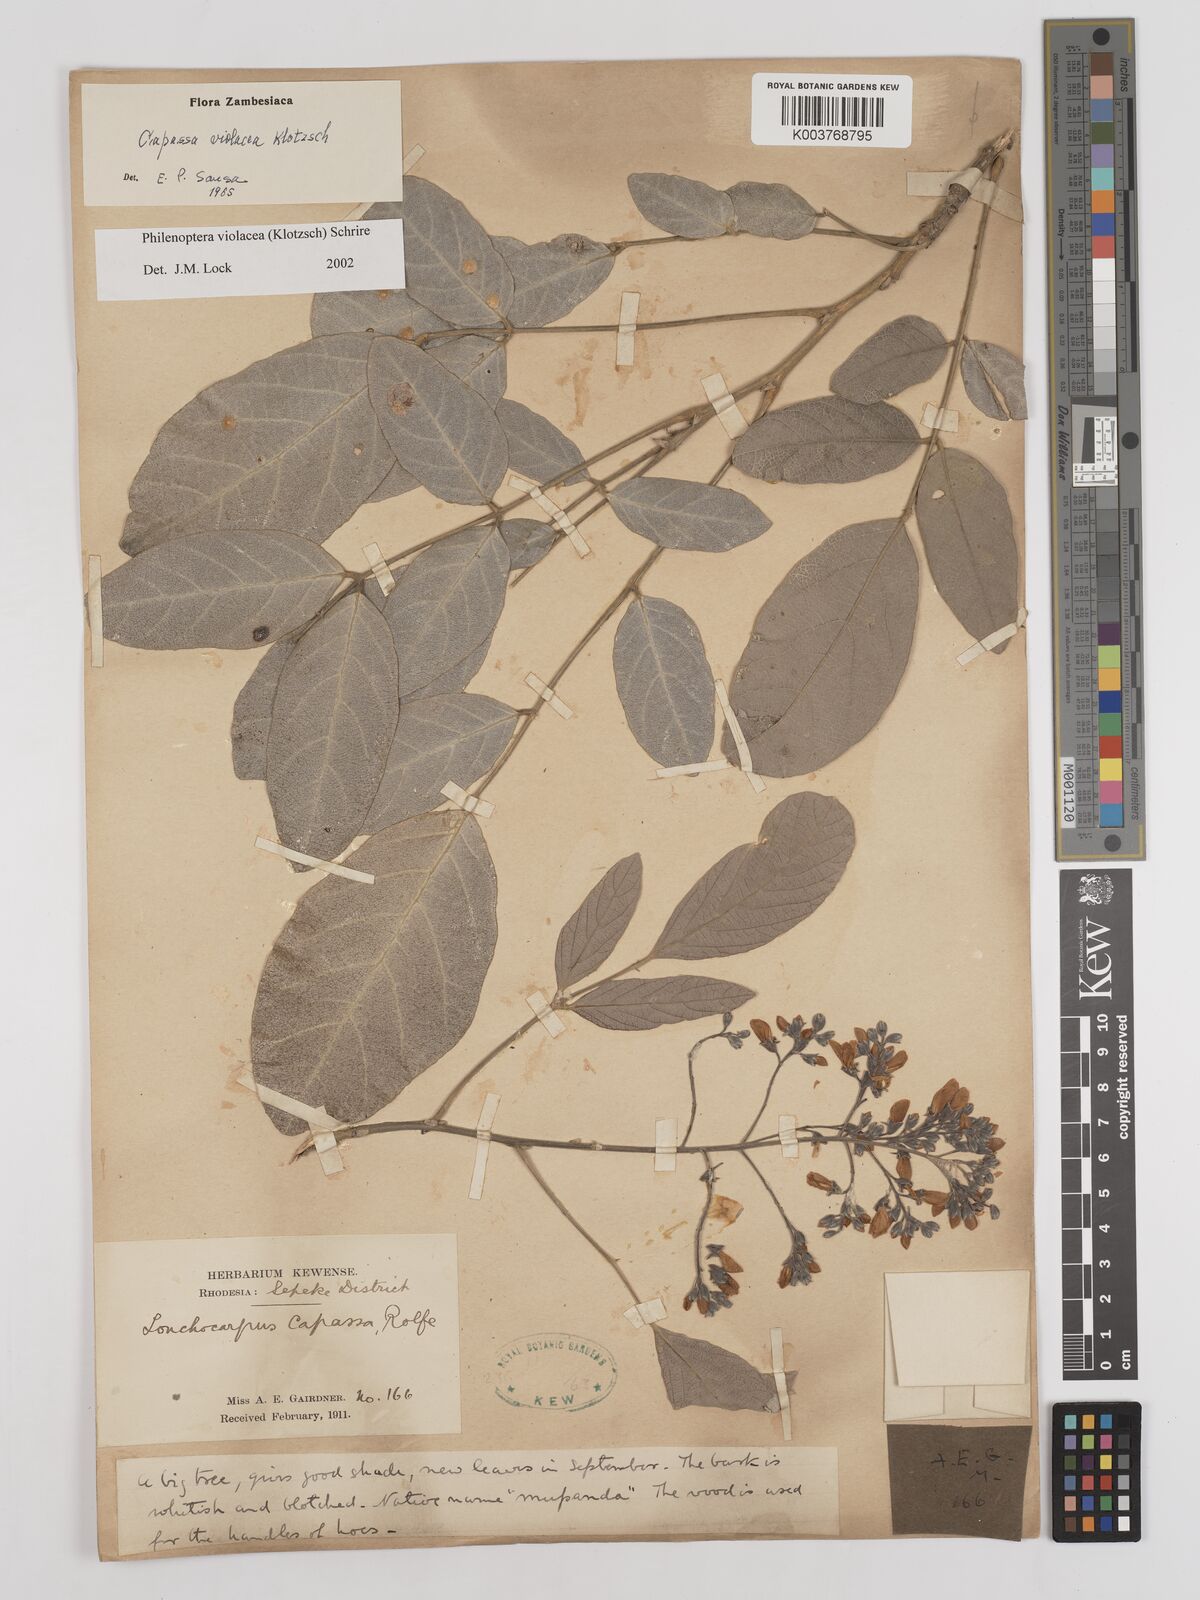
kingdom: Plantae
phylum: Tracheophyta
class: Magnoliopsida
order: Fabales
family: Fabaceae
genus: Philenoptera
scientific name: Philenoptera violacea
